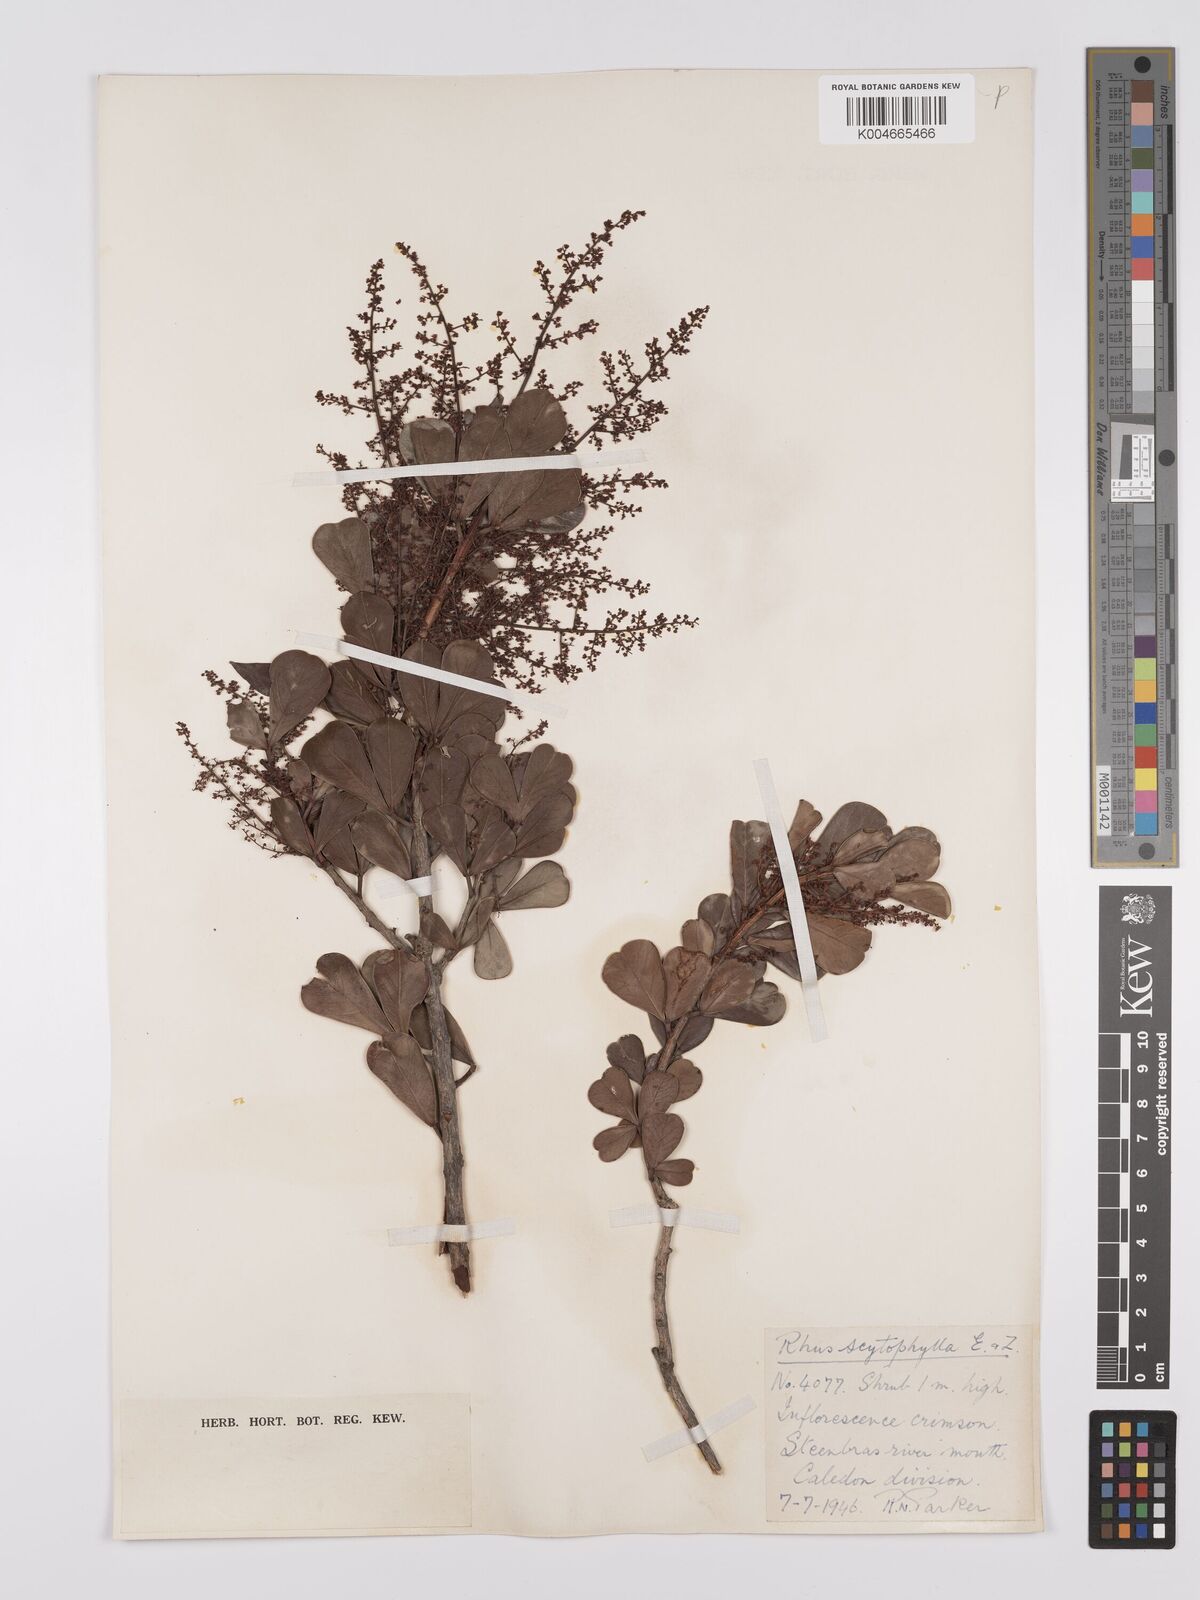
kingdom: Plantae
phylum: Tracheophyta
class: Magnoliopsida
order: Sapindales
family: Anacardiaceae
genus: Searsia
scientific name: Searsia scytophylla
